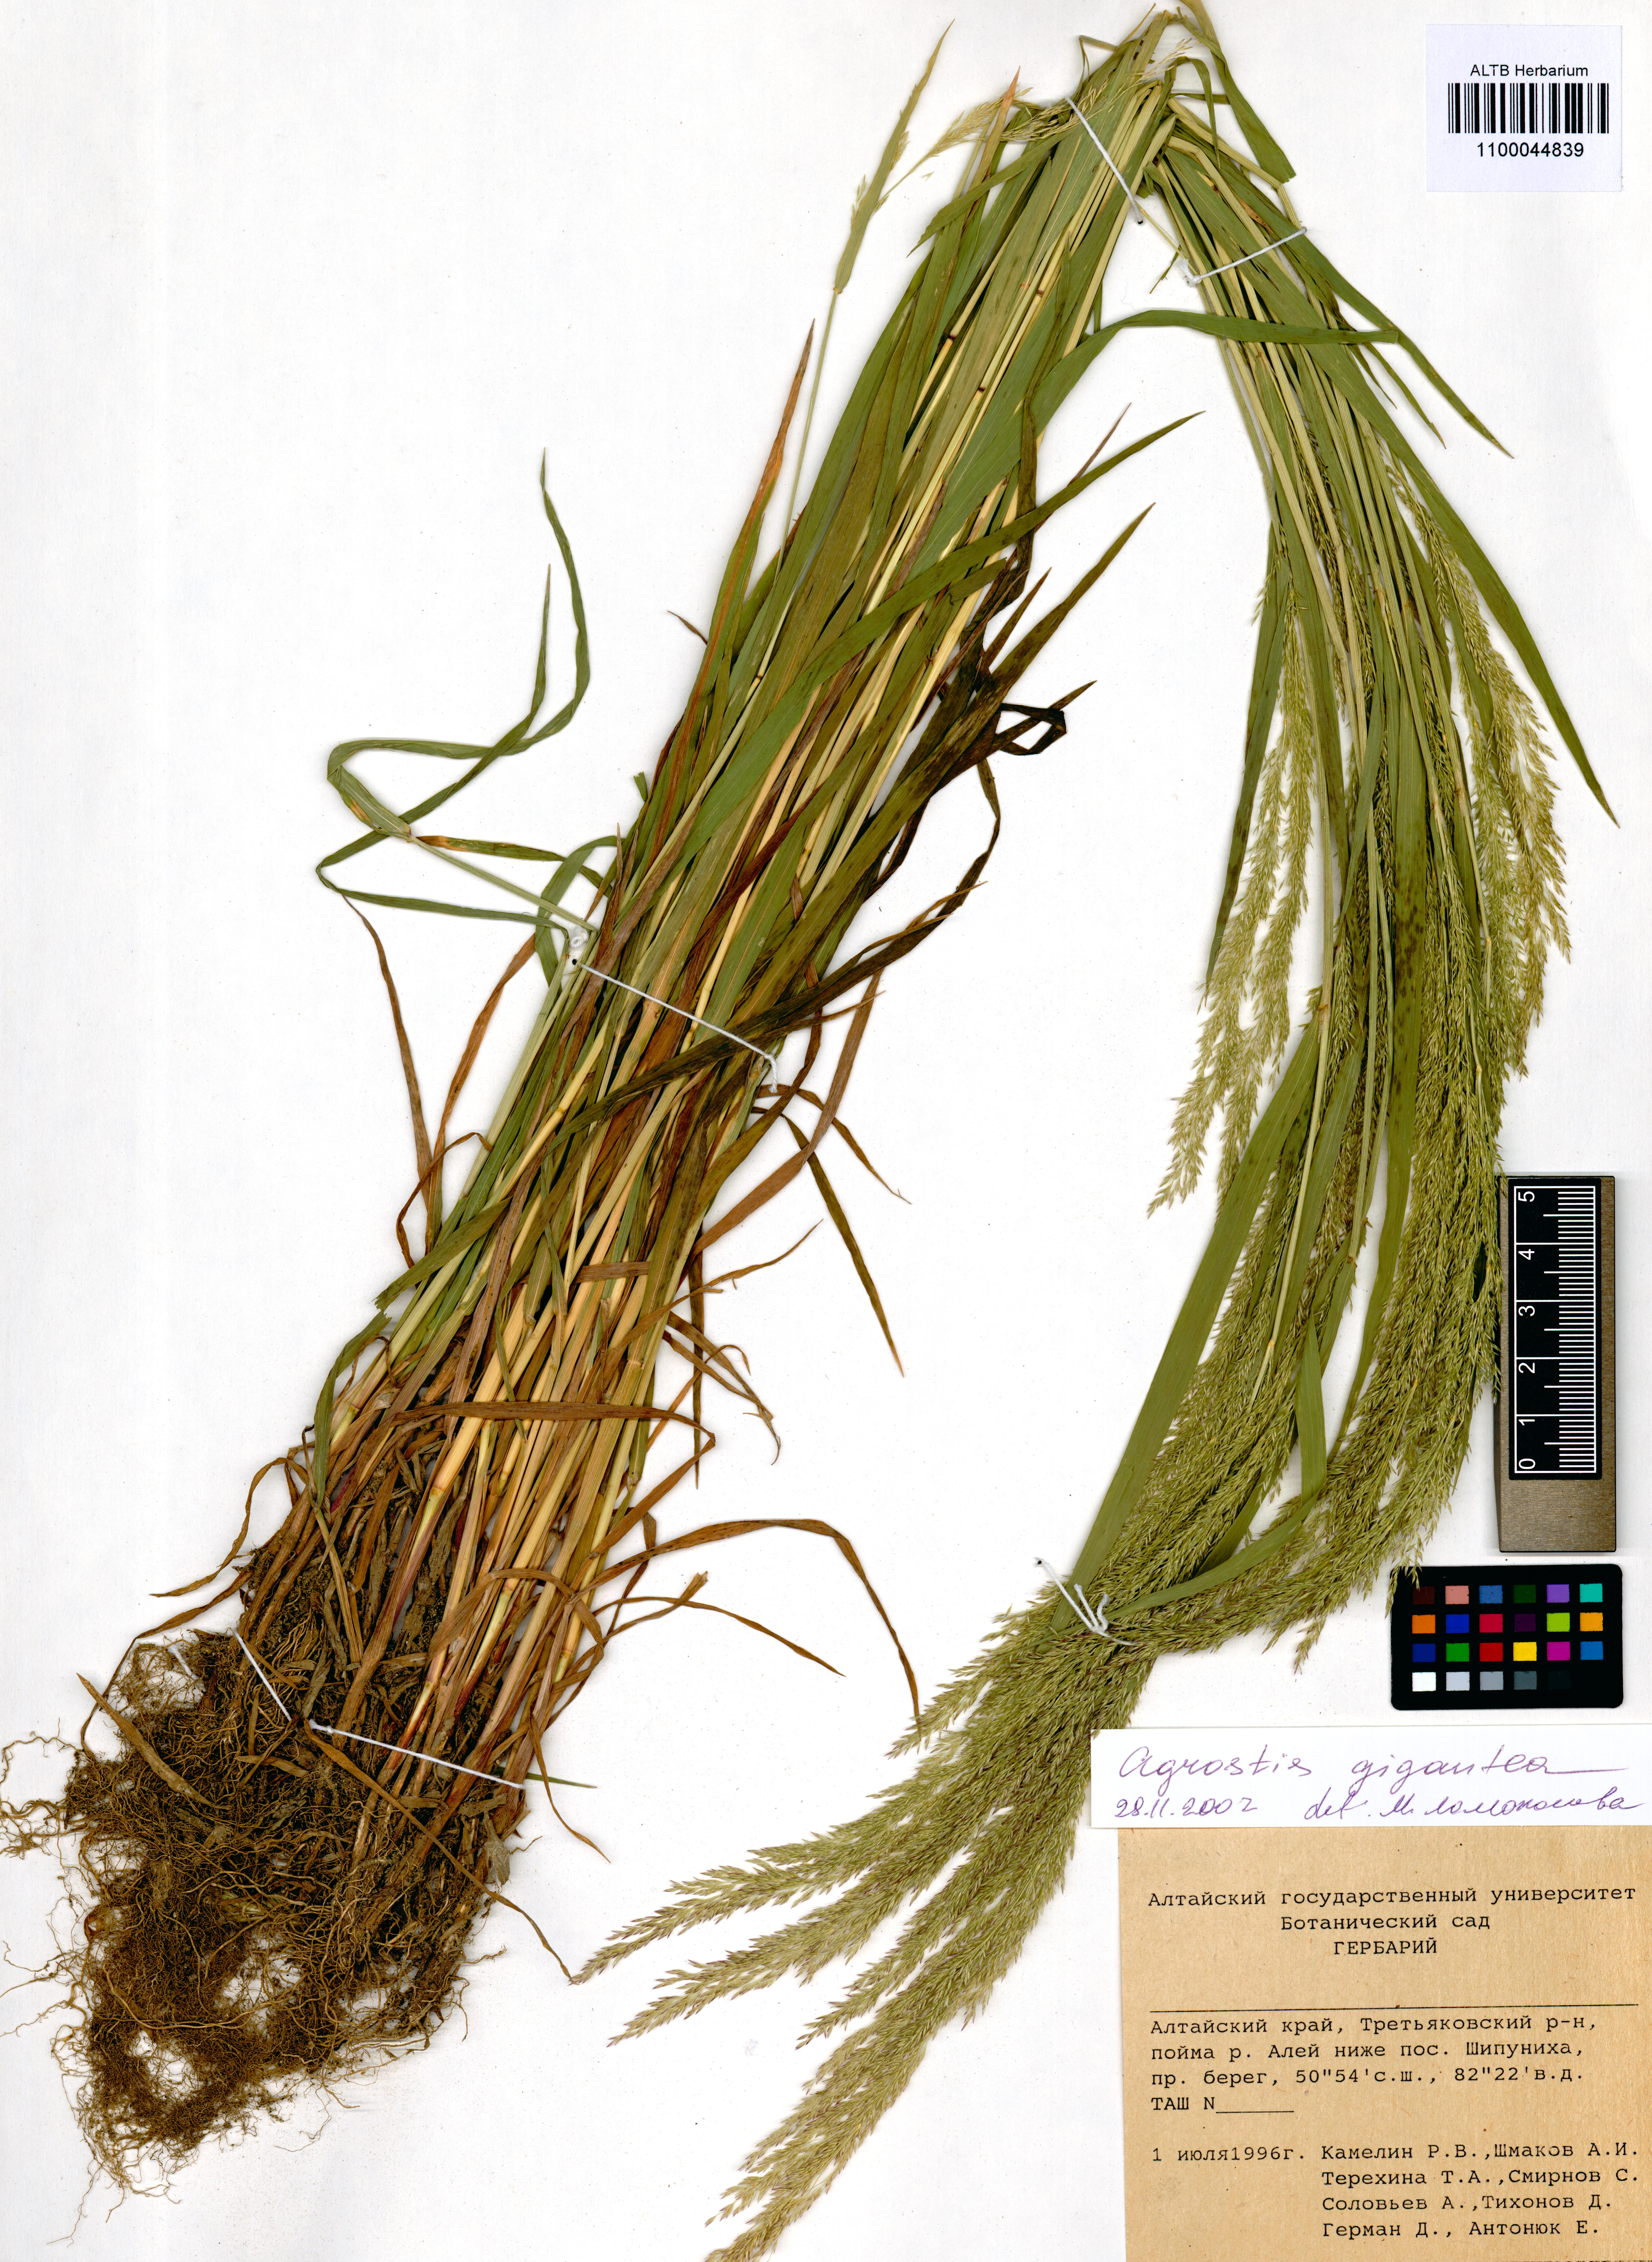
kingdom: Plantae
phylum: Tracheophyta
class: Liliopsida
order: Poales
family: Poaceae
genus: Agrostis
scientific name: Agrostis gigantea
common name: Black bent
